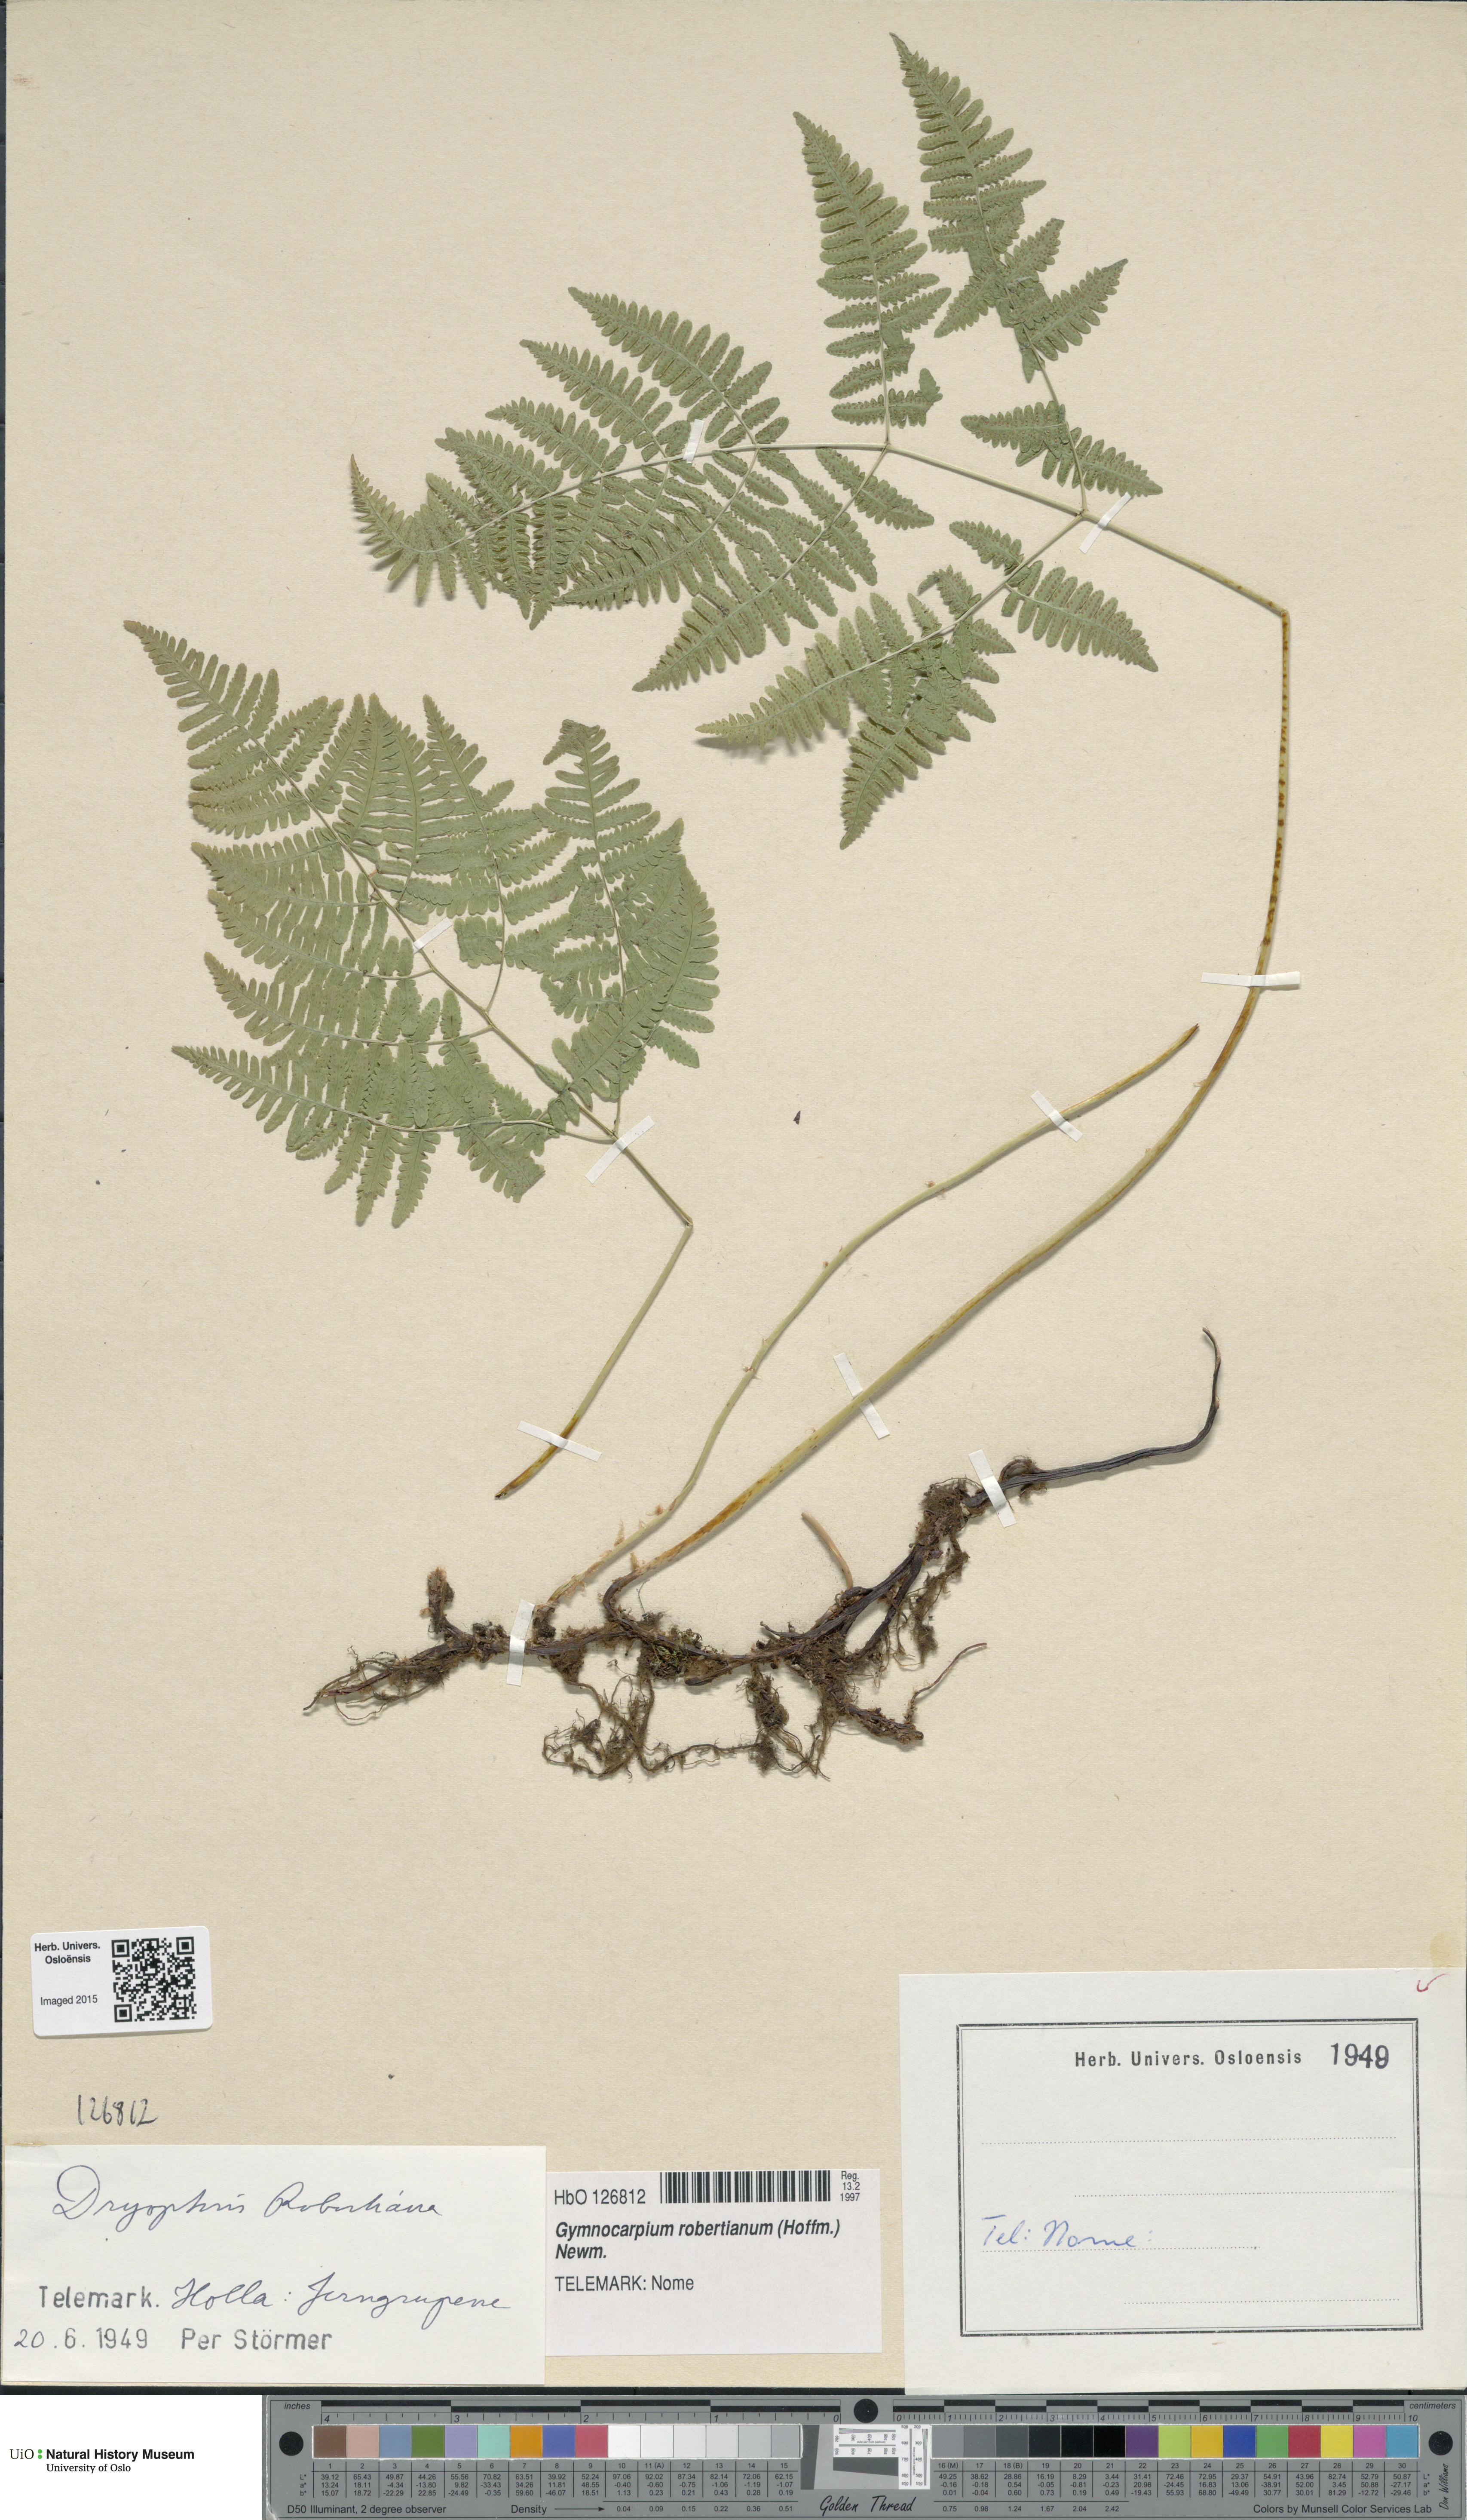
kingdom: Plantae
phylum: Tracheophyta
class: Polypodiopsida
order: Polypodiales
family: Cystopteridaceae
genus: Gymnocarpium
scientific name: Gymnocarpium robertianum
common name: Limestone fern
